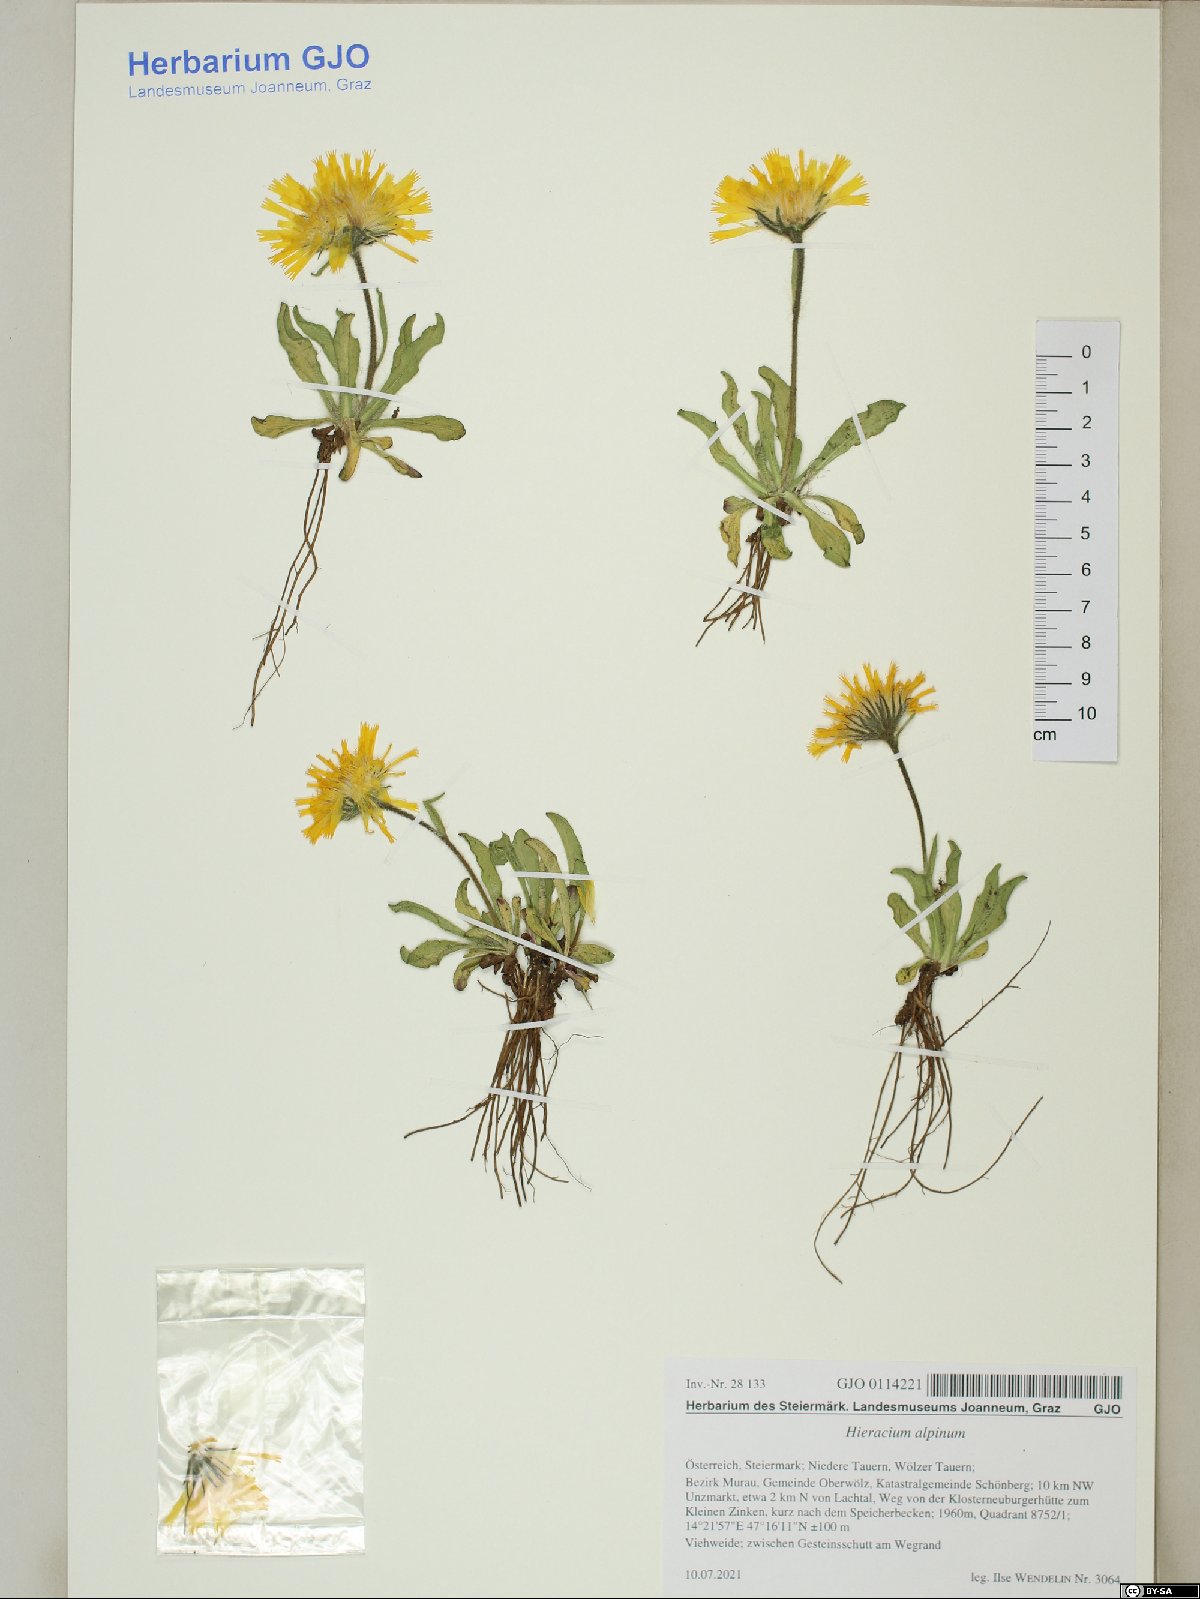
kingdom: Plantae
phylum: Tracheophyta
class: Magnoliopsida
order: Asterales
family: Asteraceae
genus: Hieracium
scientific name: Hieracium alpinum
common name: Alpine hawkweed
